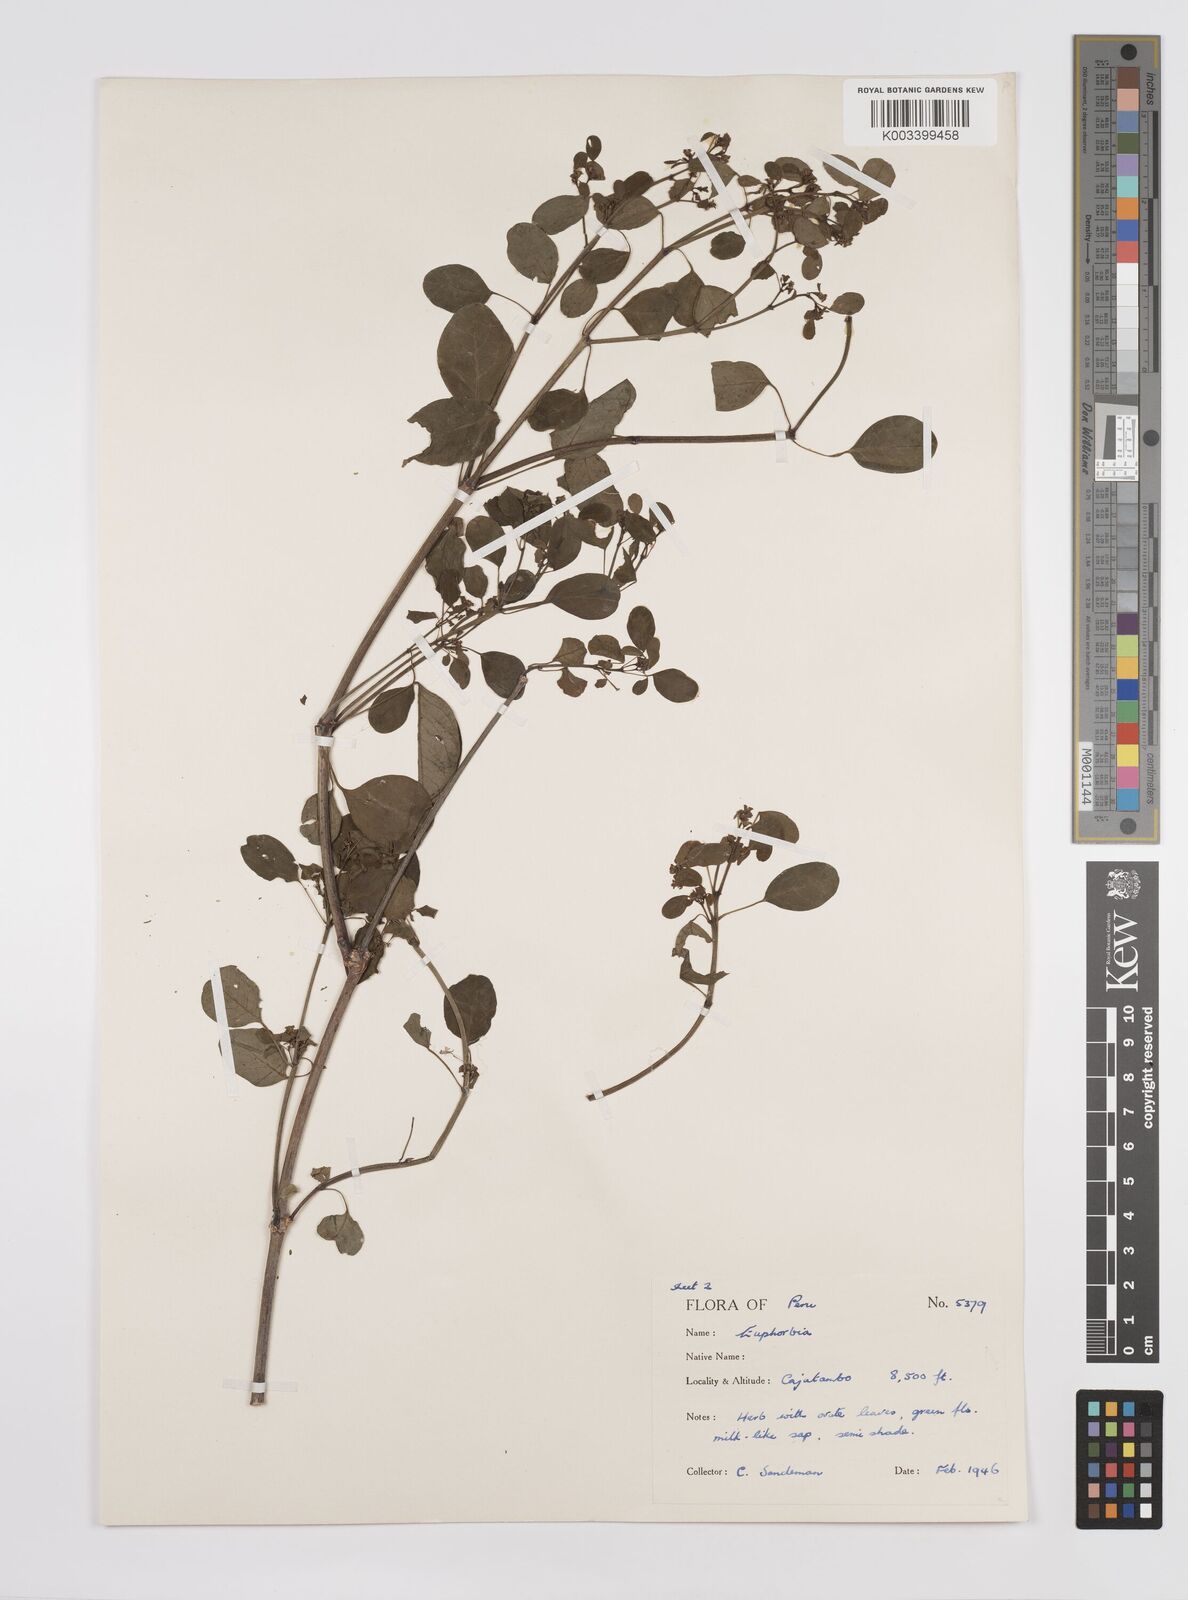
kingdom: Plantae
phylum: Tracheophyta
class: Magnoliopsida
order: Malpighiales
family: Euphorbiaceae
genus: Euphorbia
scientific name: Euphorbia
